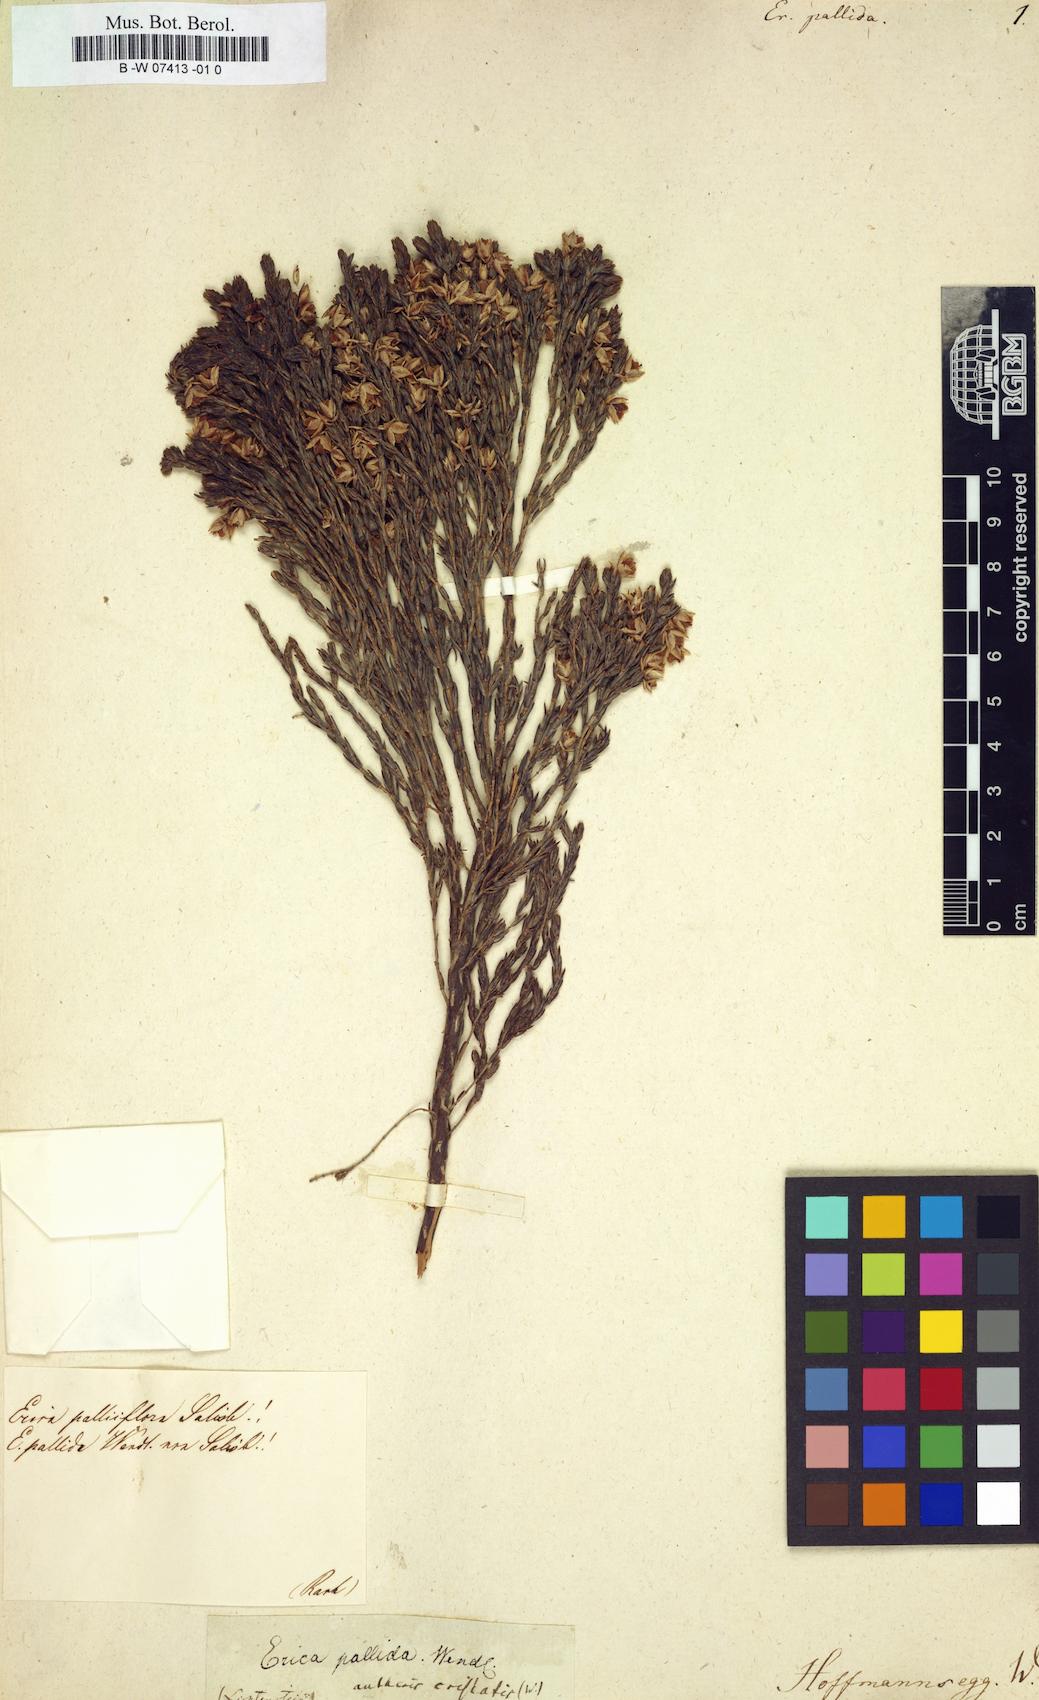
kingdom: Plantae
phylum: Tracheophyta
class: Magnoliopsida
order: Ericales
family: Ericaceae
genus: Erica
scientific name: Erica pubescens
